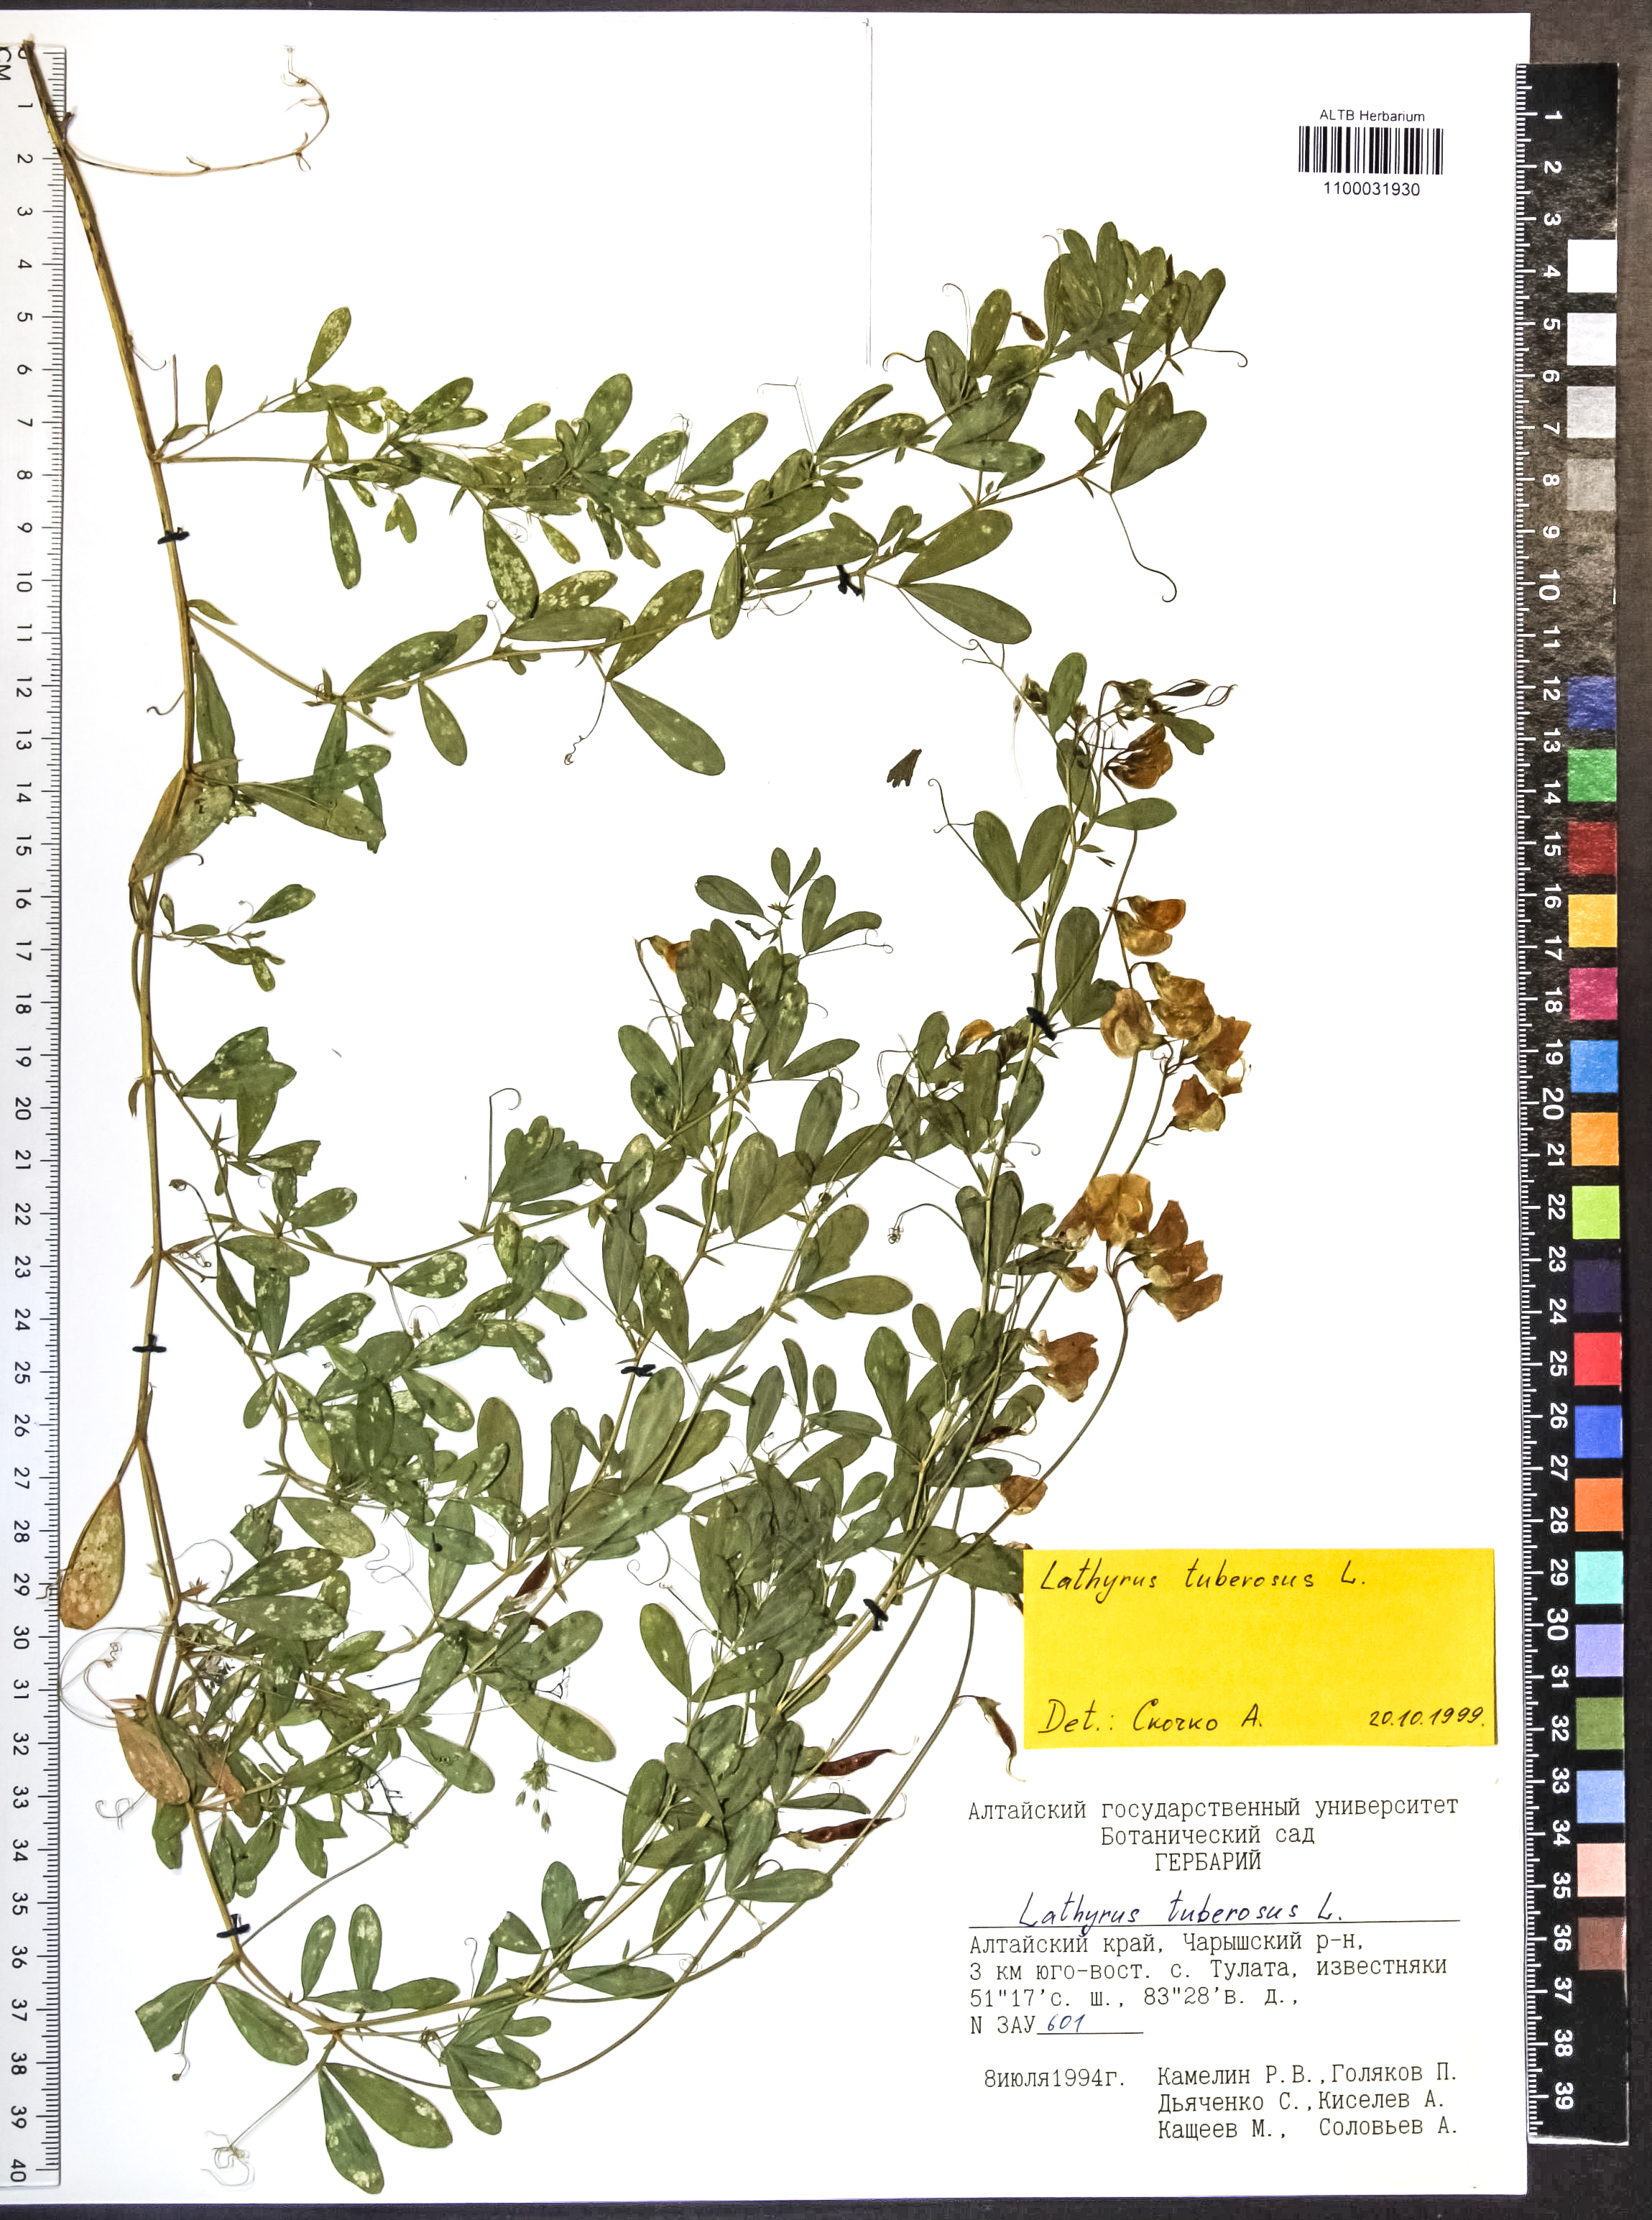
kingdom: Plantae
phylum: Tracheophyta
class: Magnoliopsida
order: Fabales
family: Fabaceae
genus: Lathyrus
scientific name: Lathyrus tuberosus
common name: Tuberous pea
